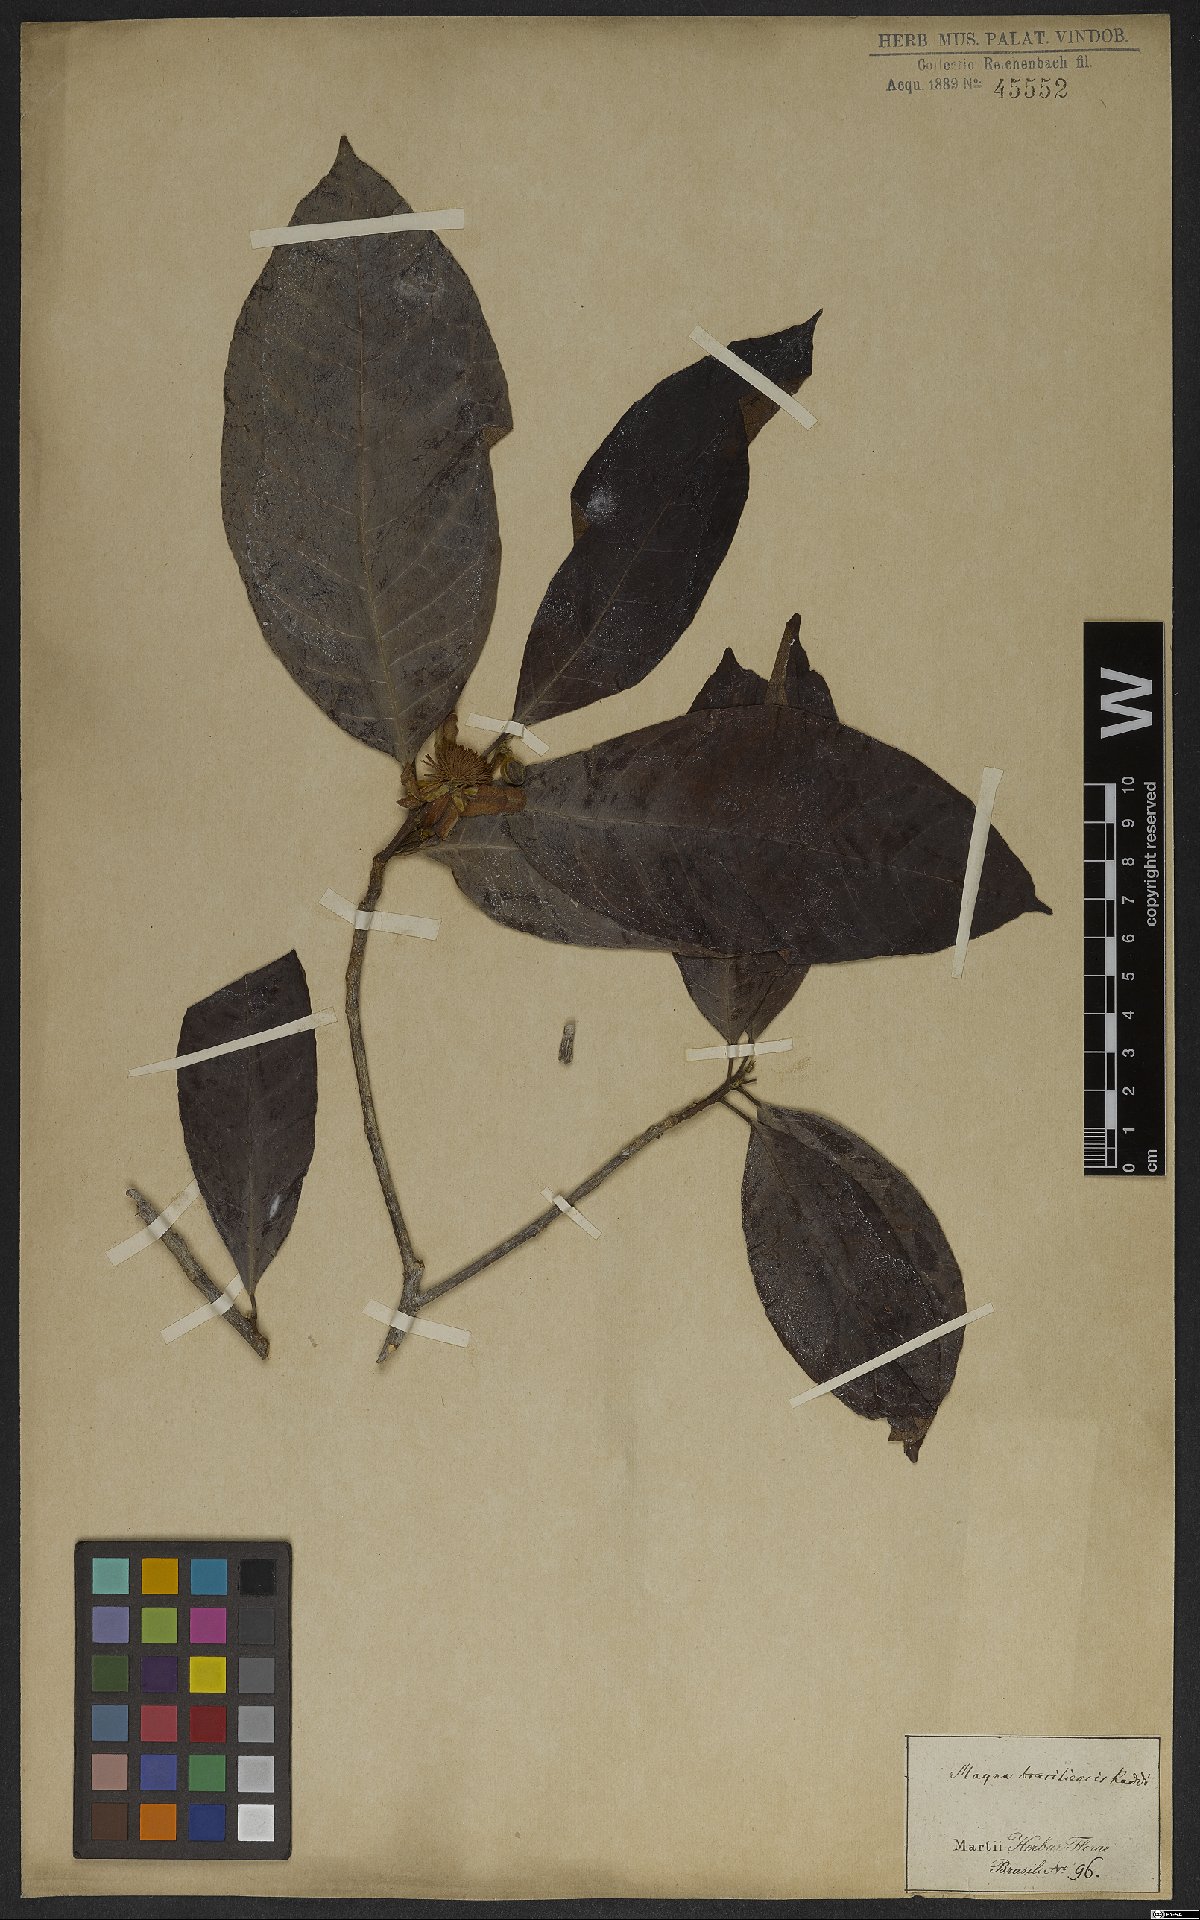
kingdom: Plantae
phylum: Tracheophyta
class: Magnoliopsida
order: Malpighiales
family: Achariaceae
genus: Carpotroche
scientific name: Carpotroche brasiliensis
